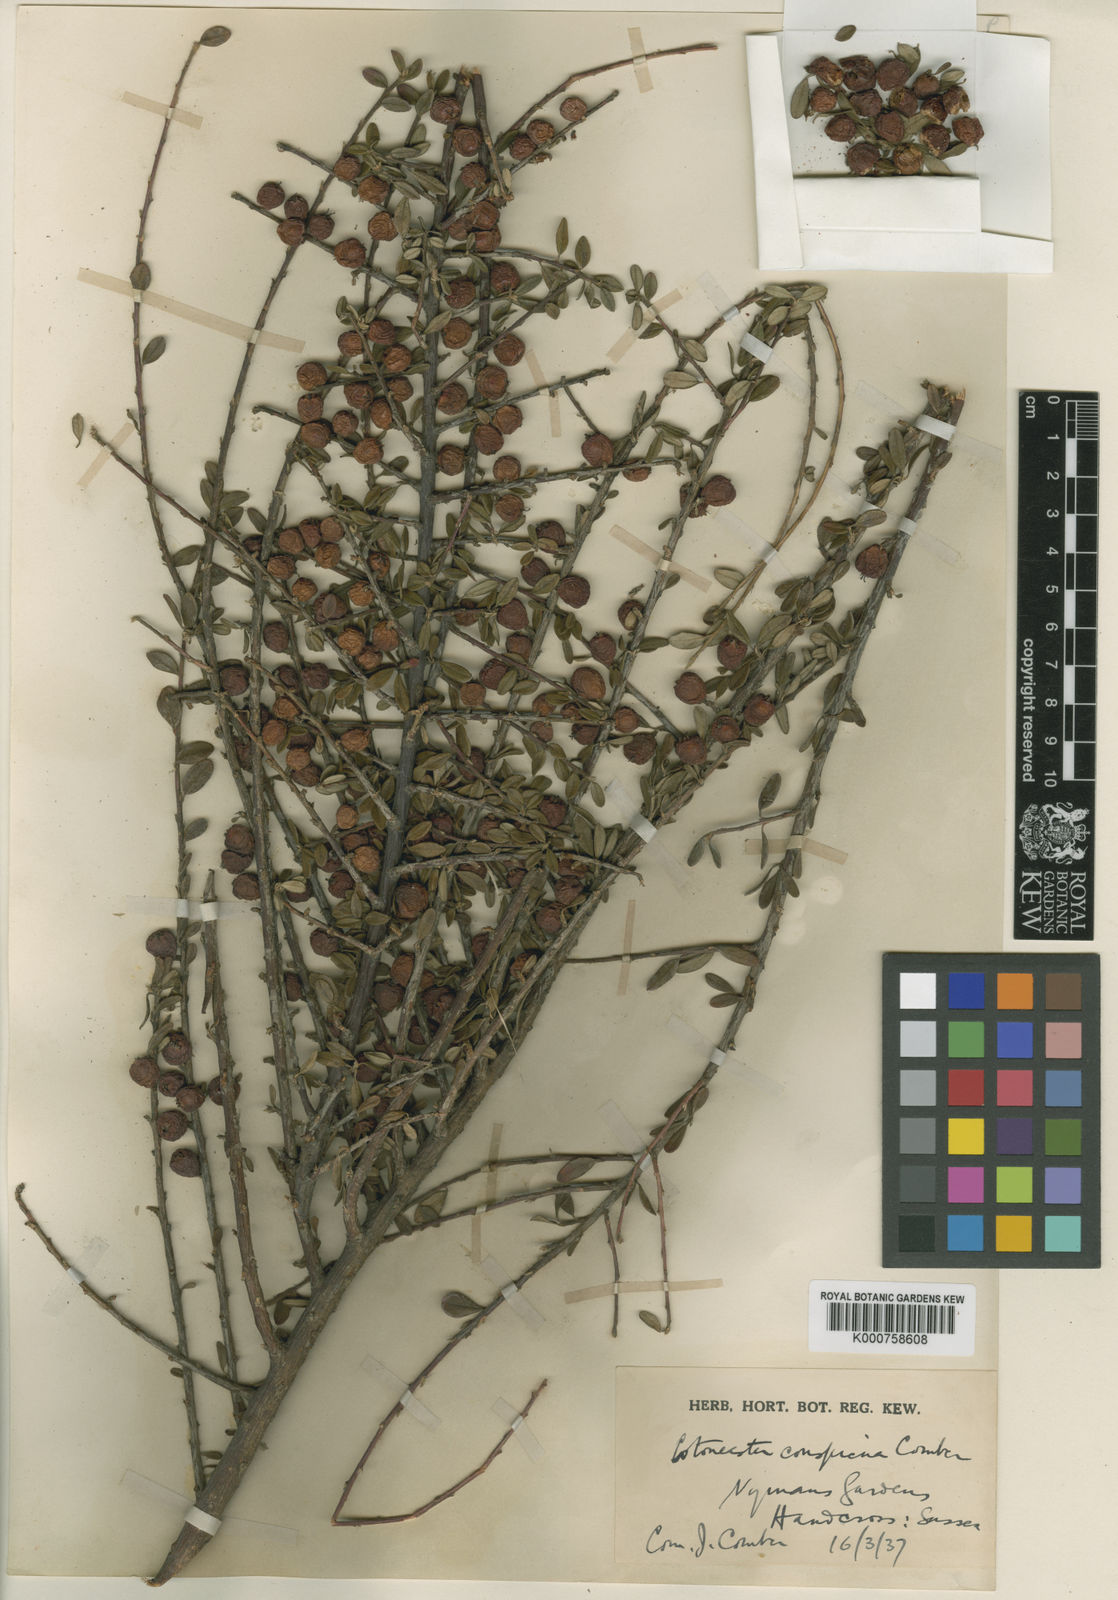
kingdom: Plantae
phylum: Tracheophyta
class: Magnoliopsida
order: Rosales
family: Rosaceae
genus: Cotoneaster
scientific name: Cotoneaster conspicuus
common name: Tibetan cotoneaster
